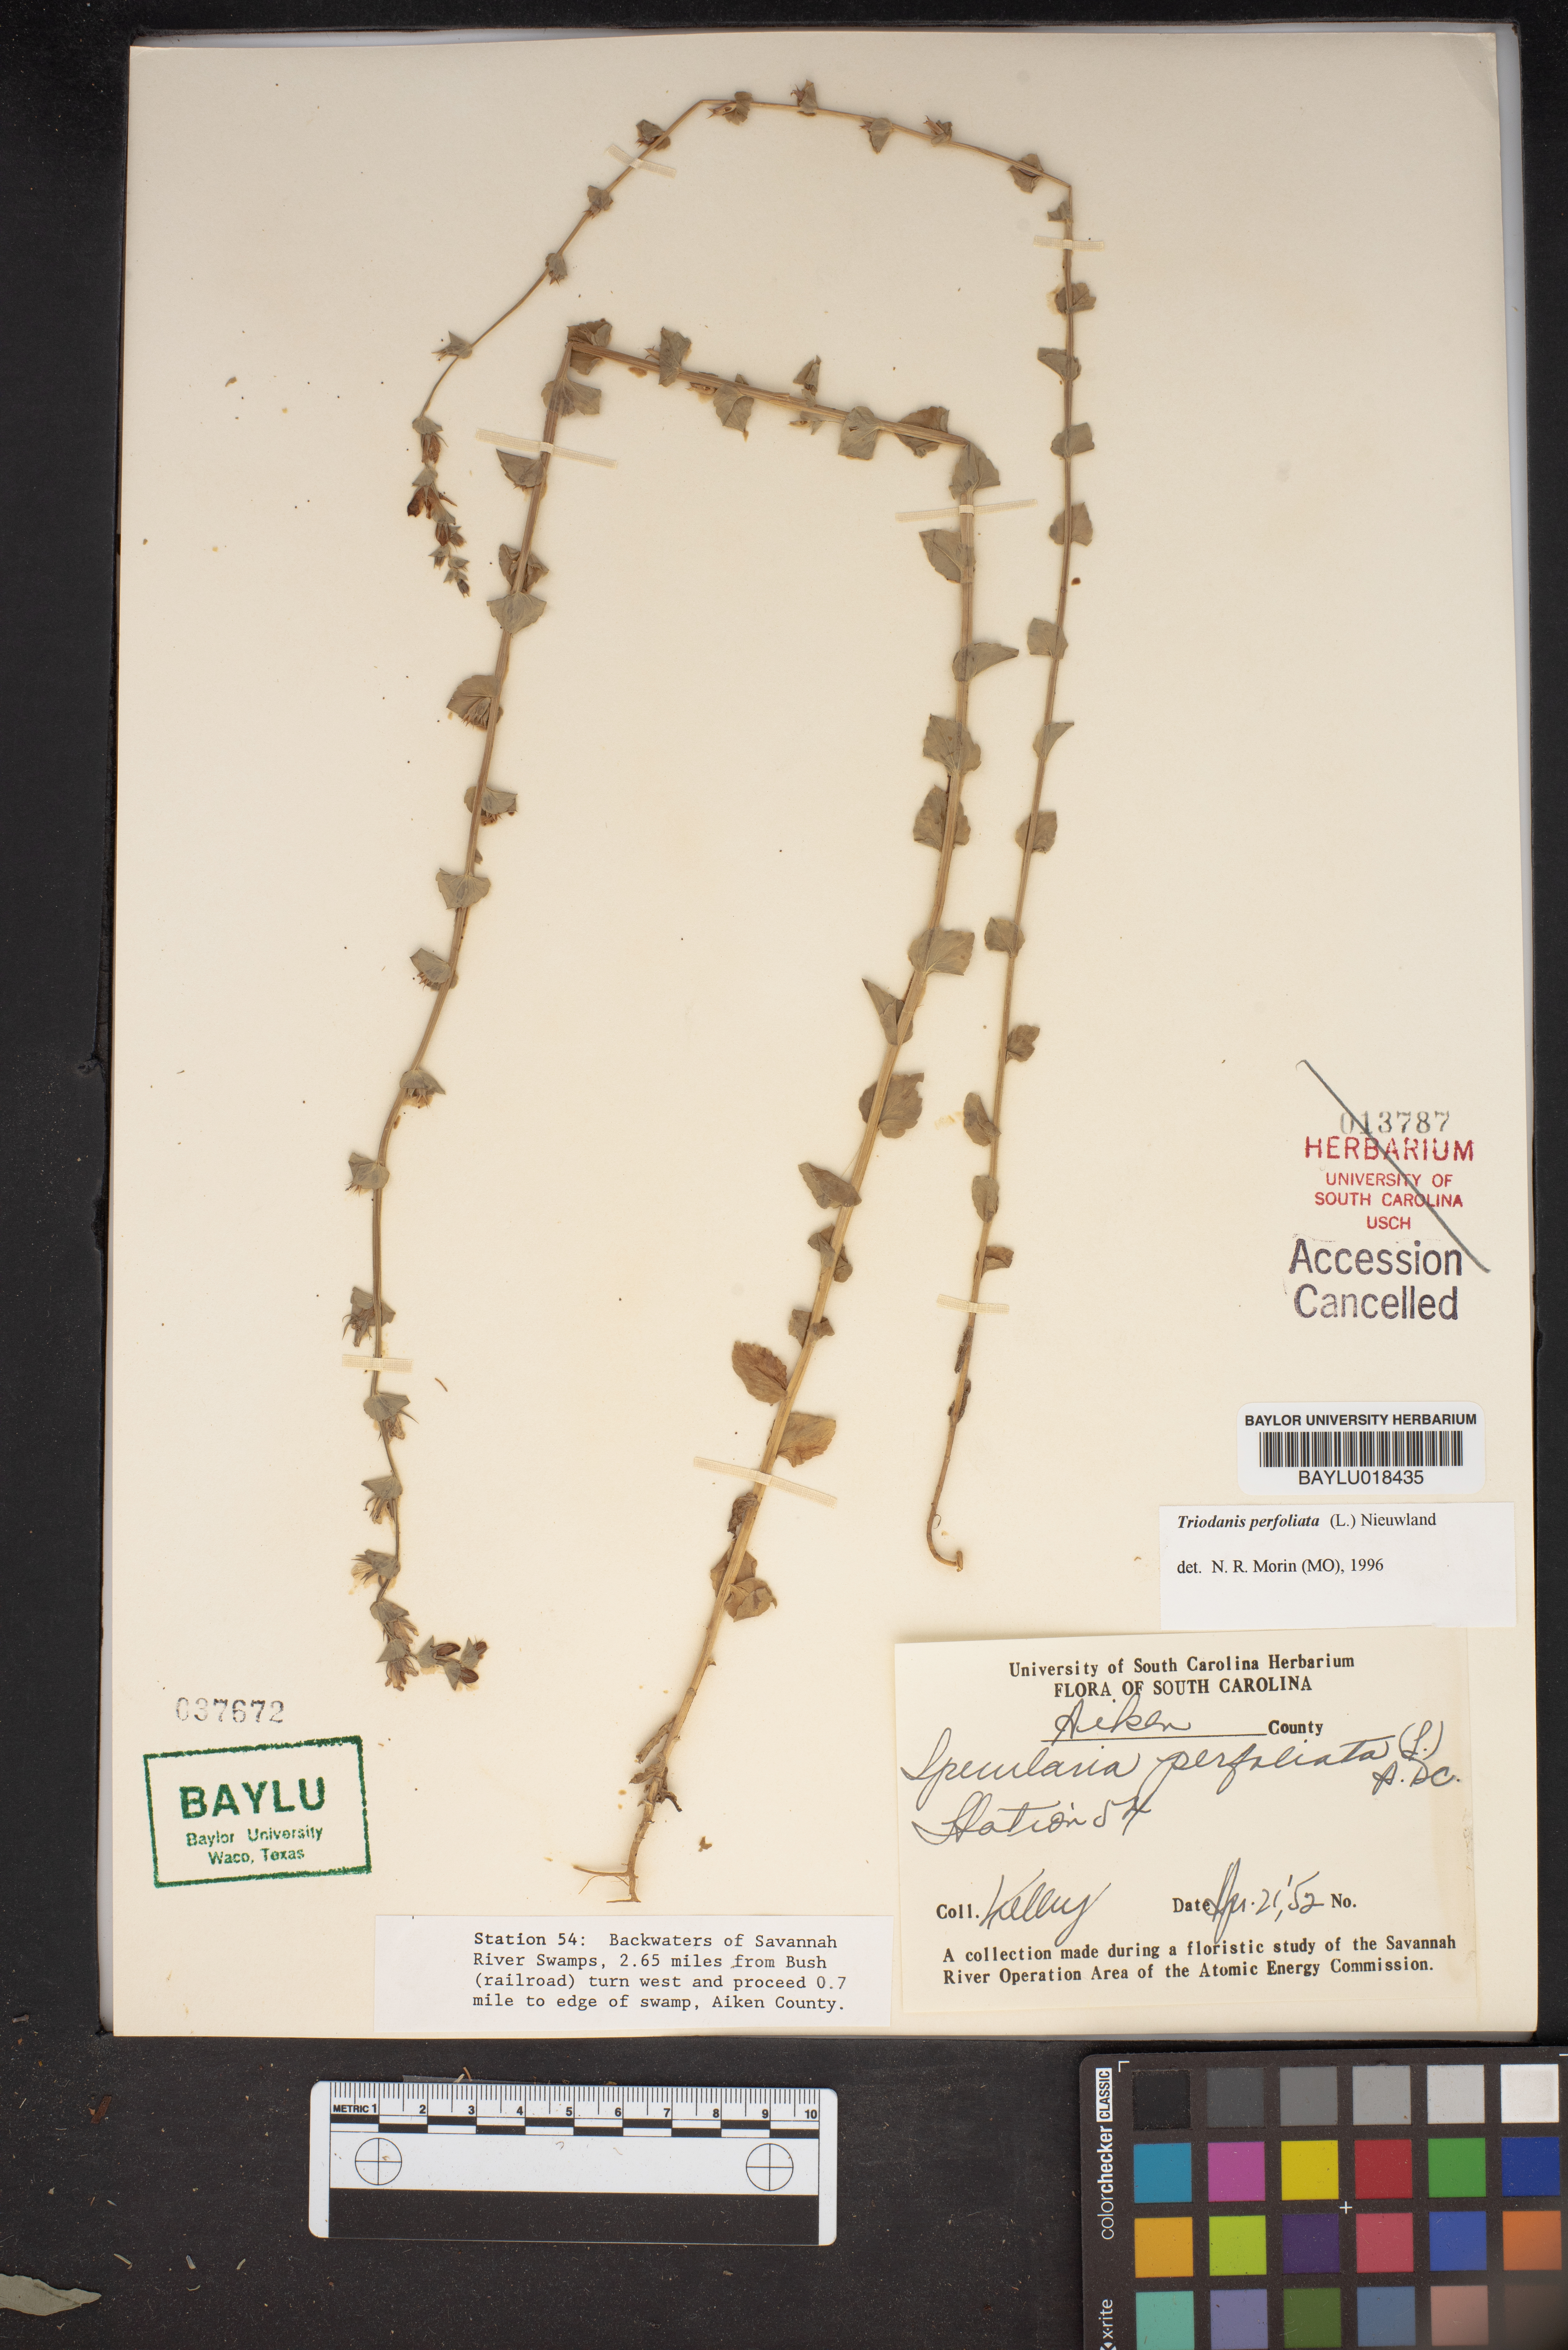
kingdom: Plantae
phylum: Tracheophyta
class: Magnoliopsida
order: Asterales
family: Campanulaceae
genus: Triodanis
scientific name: Triodanis perfoliata
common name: Clasping venus' looking-glass
